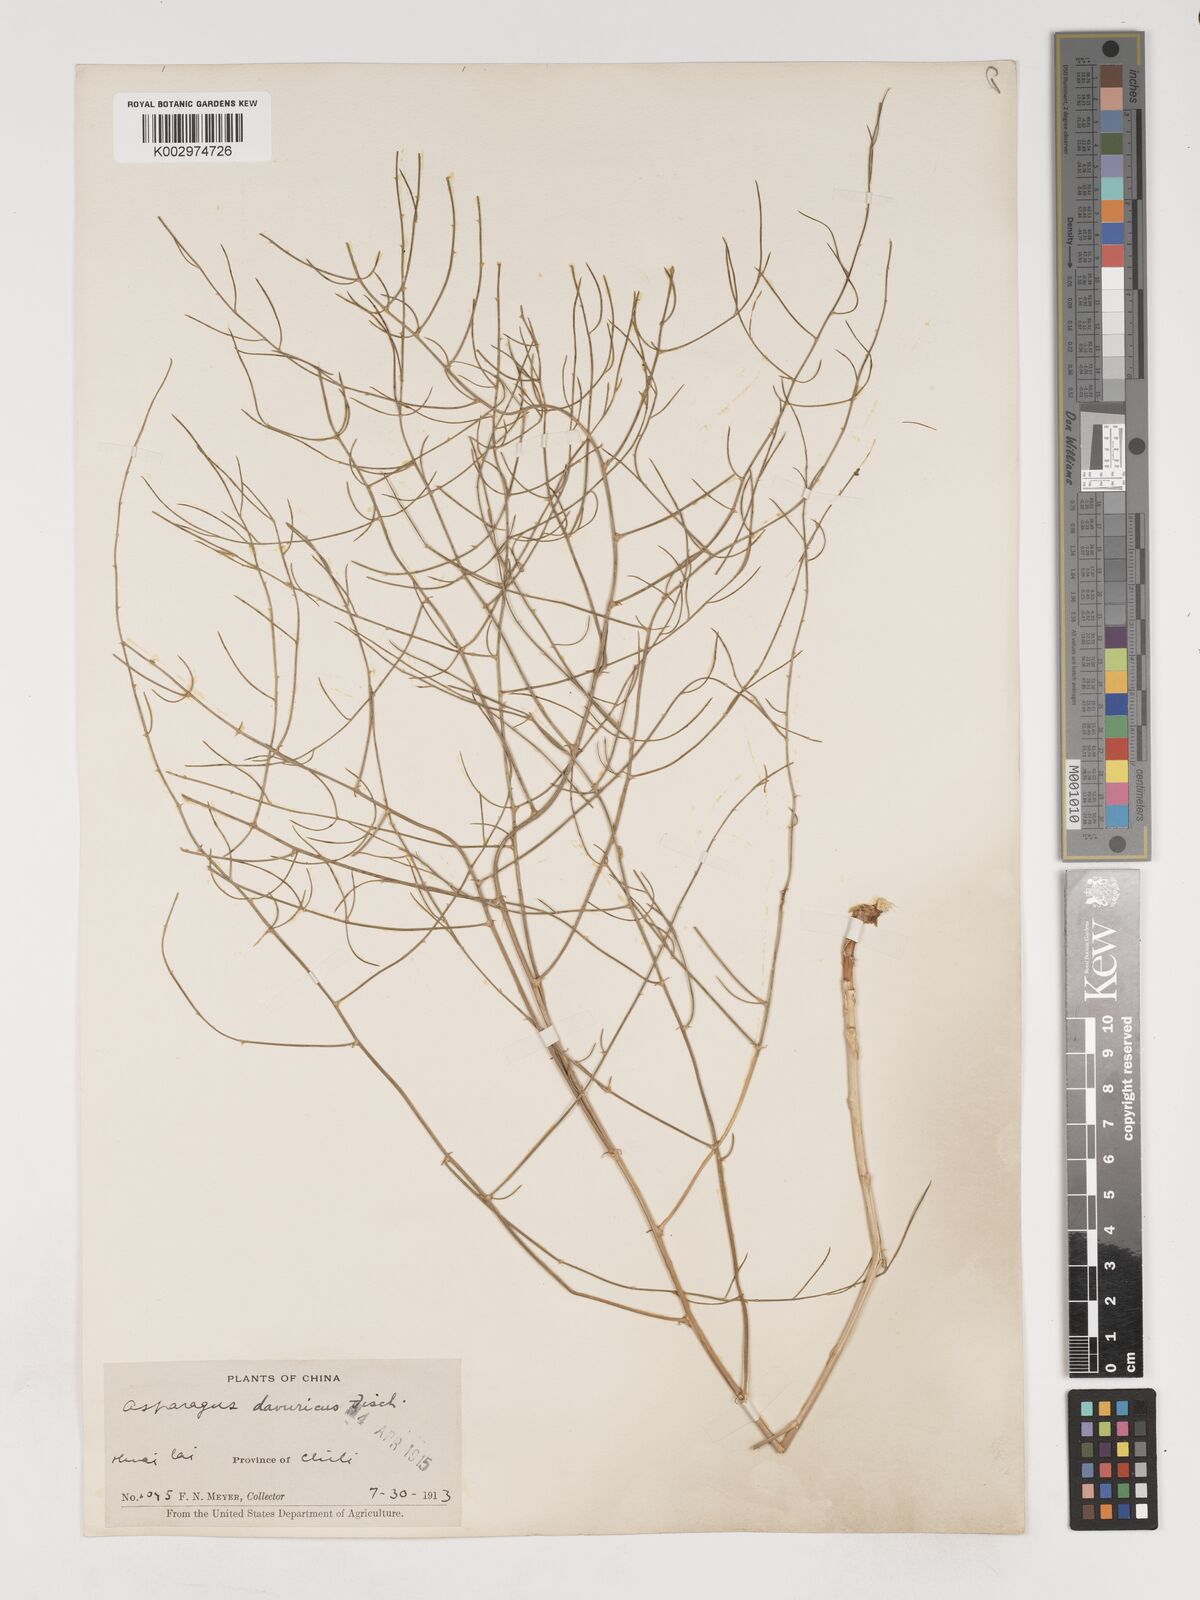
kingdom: Plantae
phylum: Tracheophyta
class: Liliopsida
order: Asparagales
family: Asparagaceae
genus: Asparagus
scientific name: Asparagus dauricus
